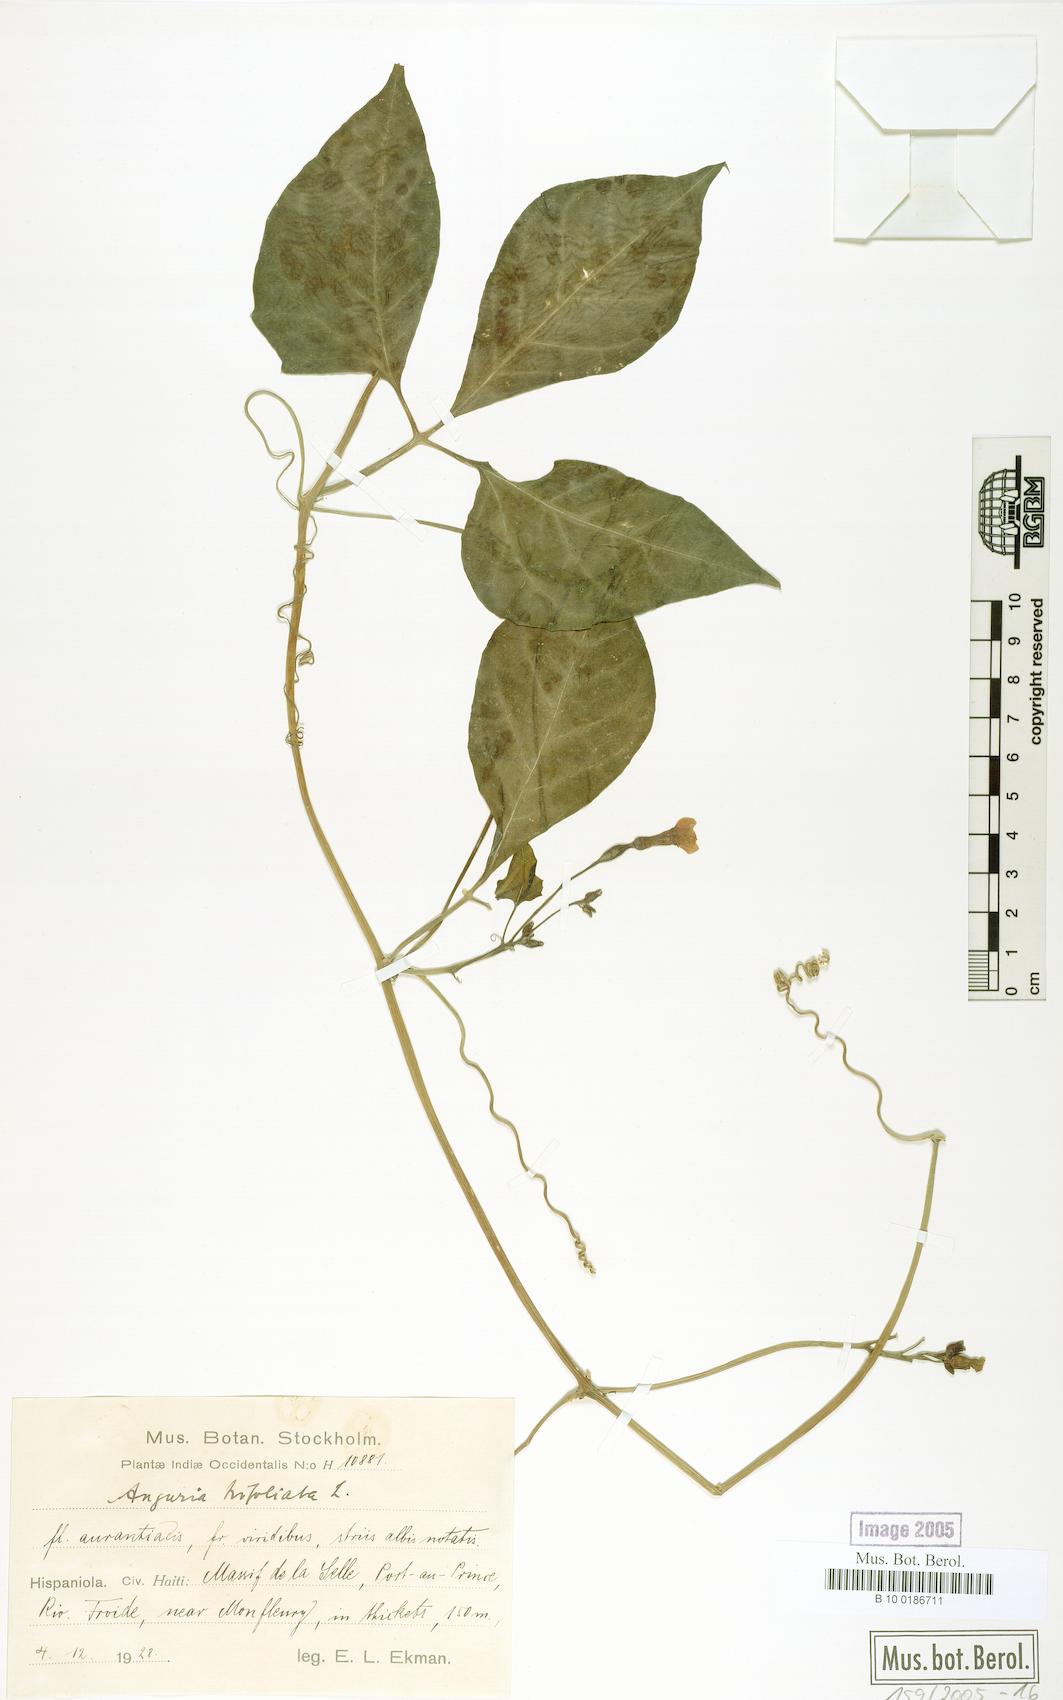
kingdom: Plantae
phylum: Tracheophyta
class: Magnoliopsida
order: Cucurbitales
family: Cucurbitaceae
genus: Gurania
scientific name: Gurania
